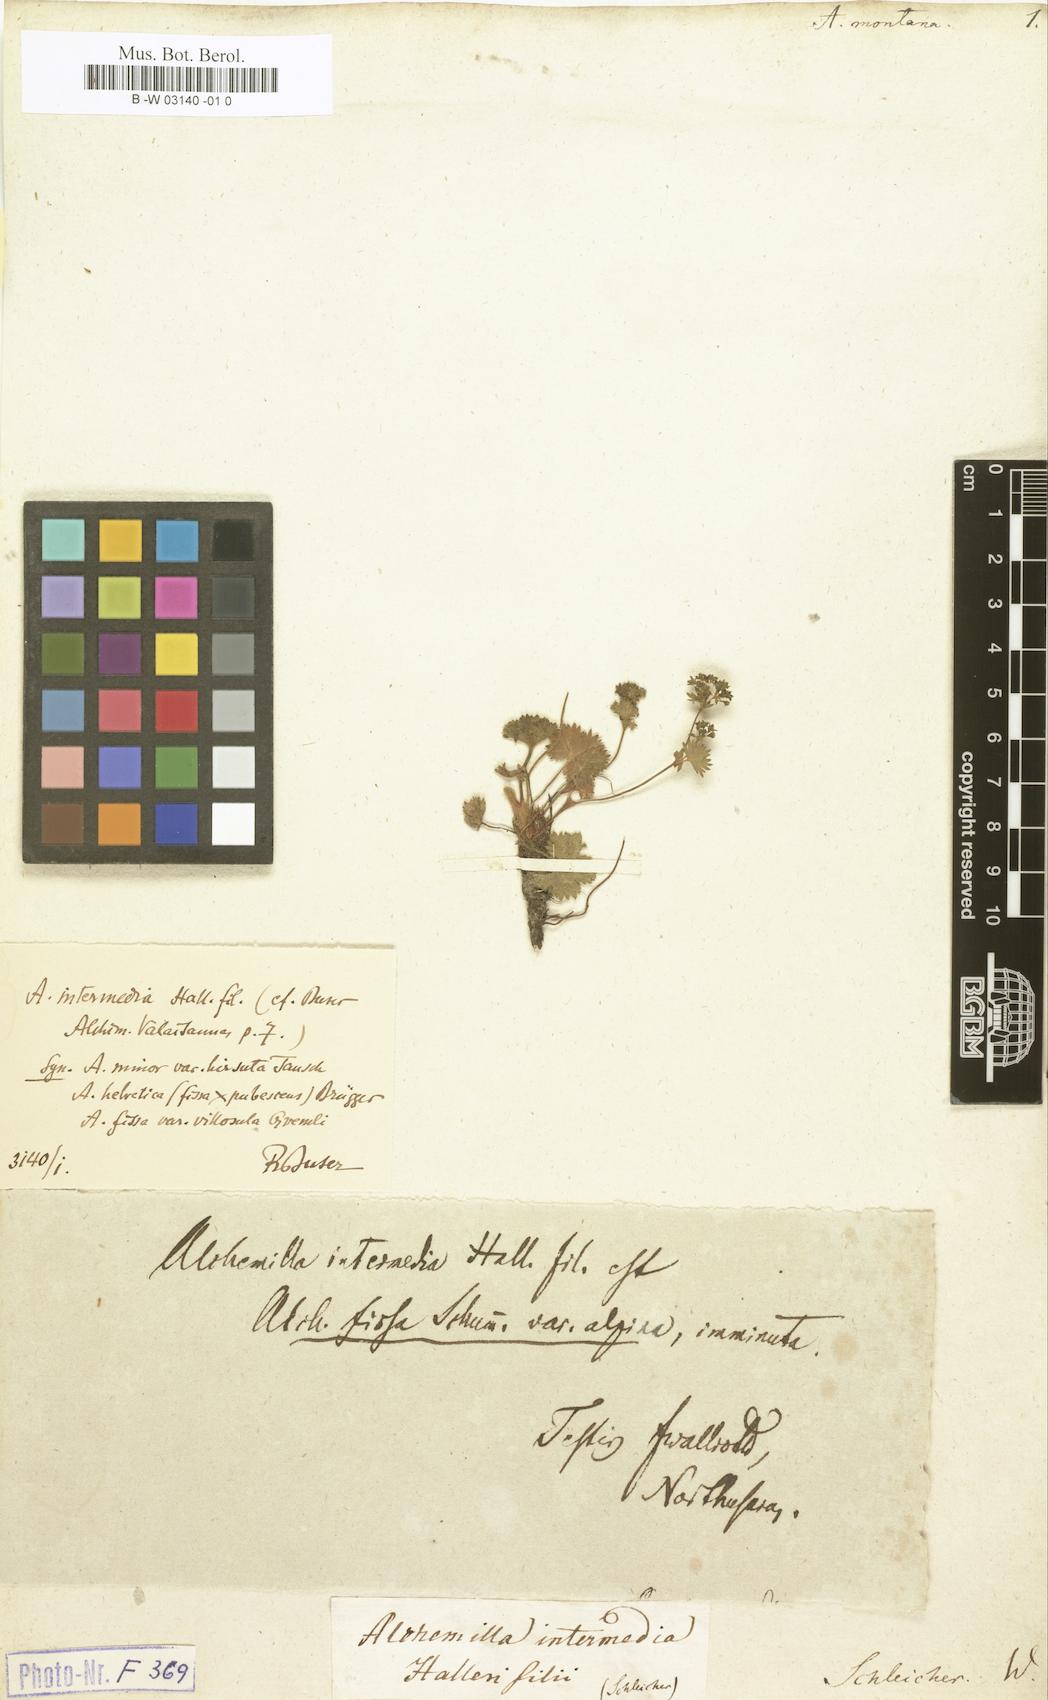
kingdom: Plantae
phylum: Tracheophyta
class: Magnoliopsida
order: Rosales
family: Rosaceae
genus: Alchemilla
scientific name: Alchemilla connivens
